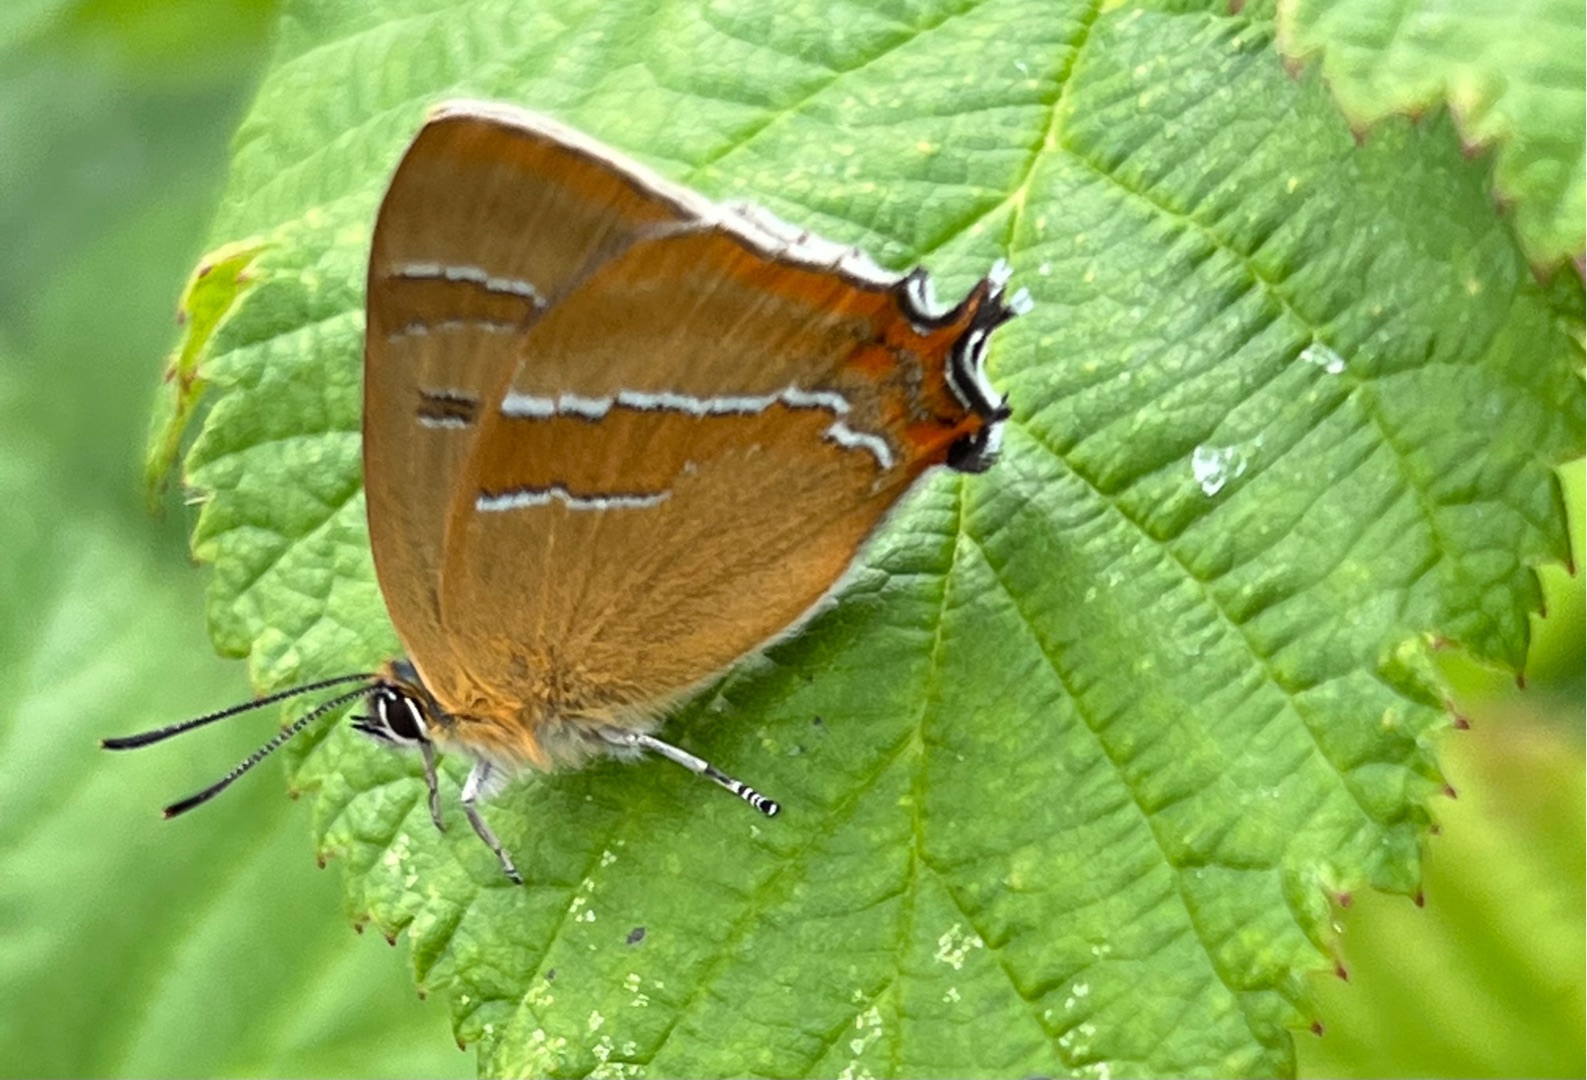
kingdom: Animalia
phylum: Arthropoda
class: Insecta
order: Lepidoptera
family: Lycaenidae
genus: Thecla
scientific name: Thecla betulae
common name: Guldhale
